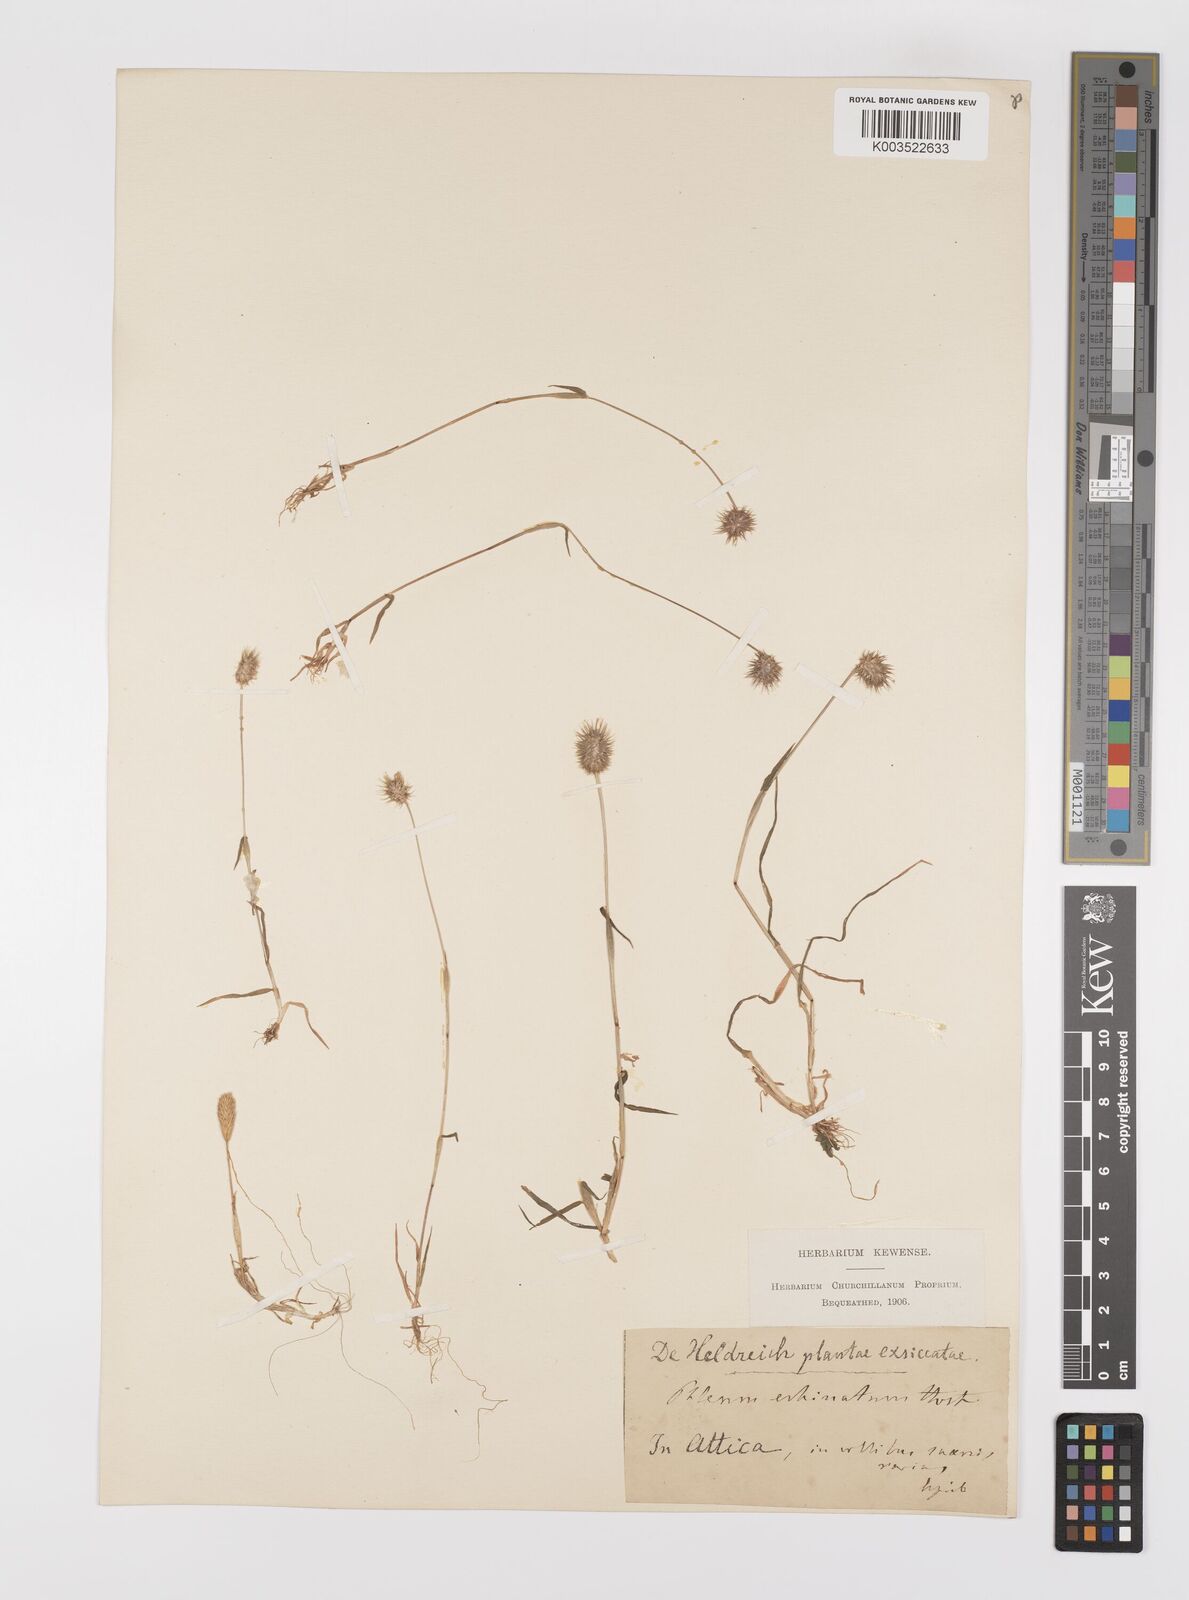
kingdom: Plantae
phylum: Tracheophyta
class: Liliopsida
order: Poales
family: Poaceae
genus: Phleum
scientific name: Phleum echinatum
